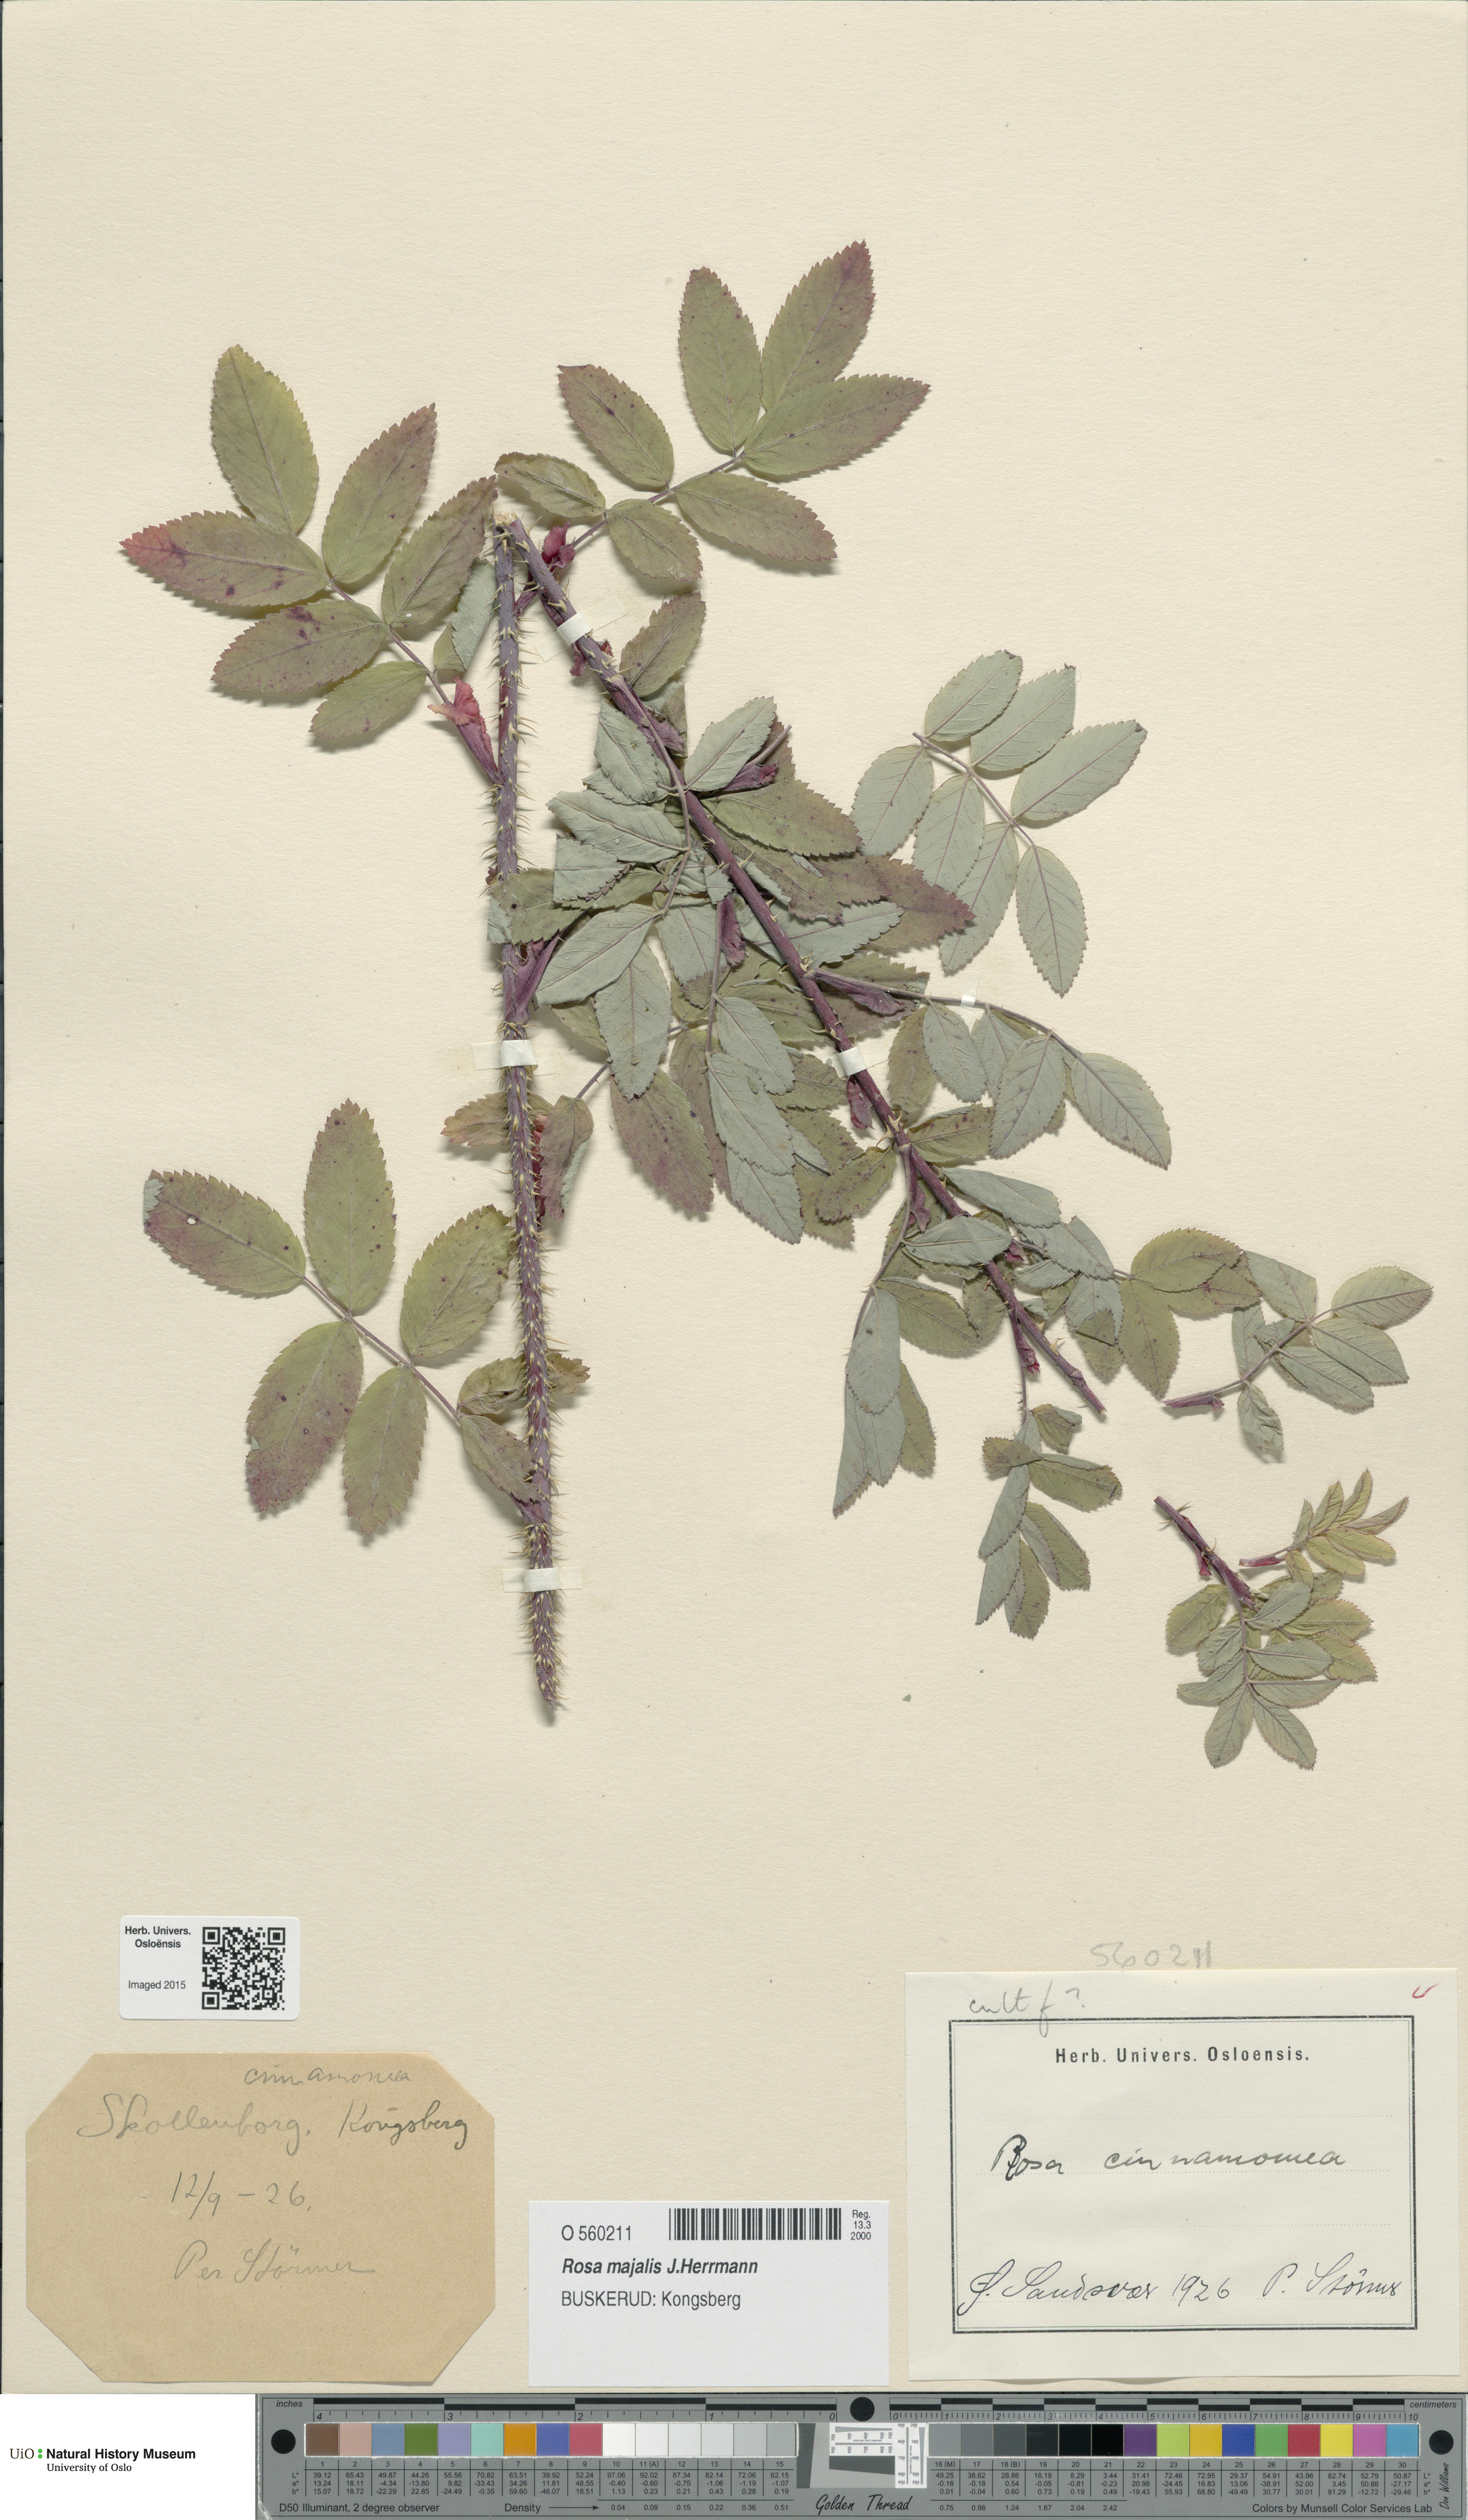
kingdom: Plantae
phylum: Tracheophyta
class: Magnoliopsida
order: Rosales
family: Rosaceae
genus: Rosa
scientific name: Rosa pendulina
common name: Alpine rose
